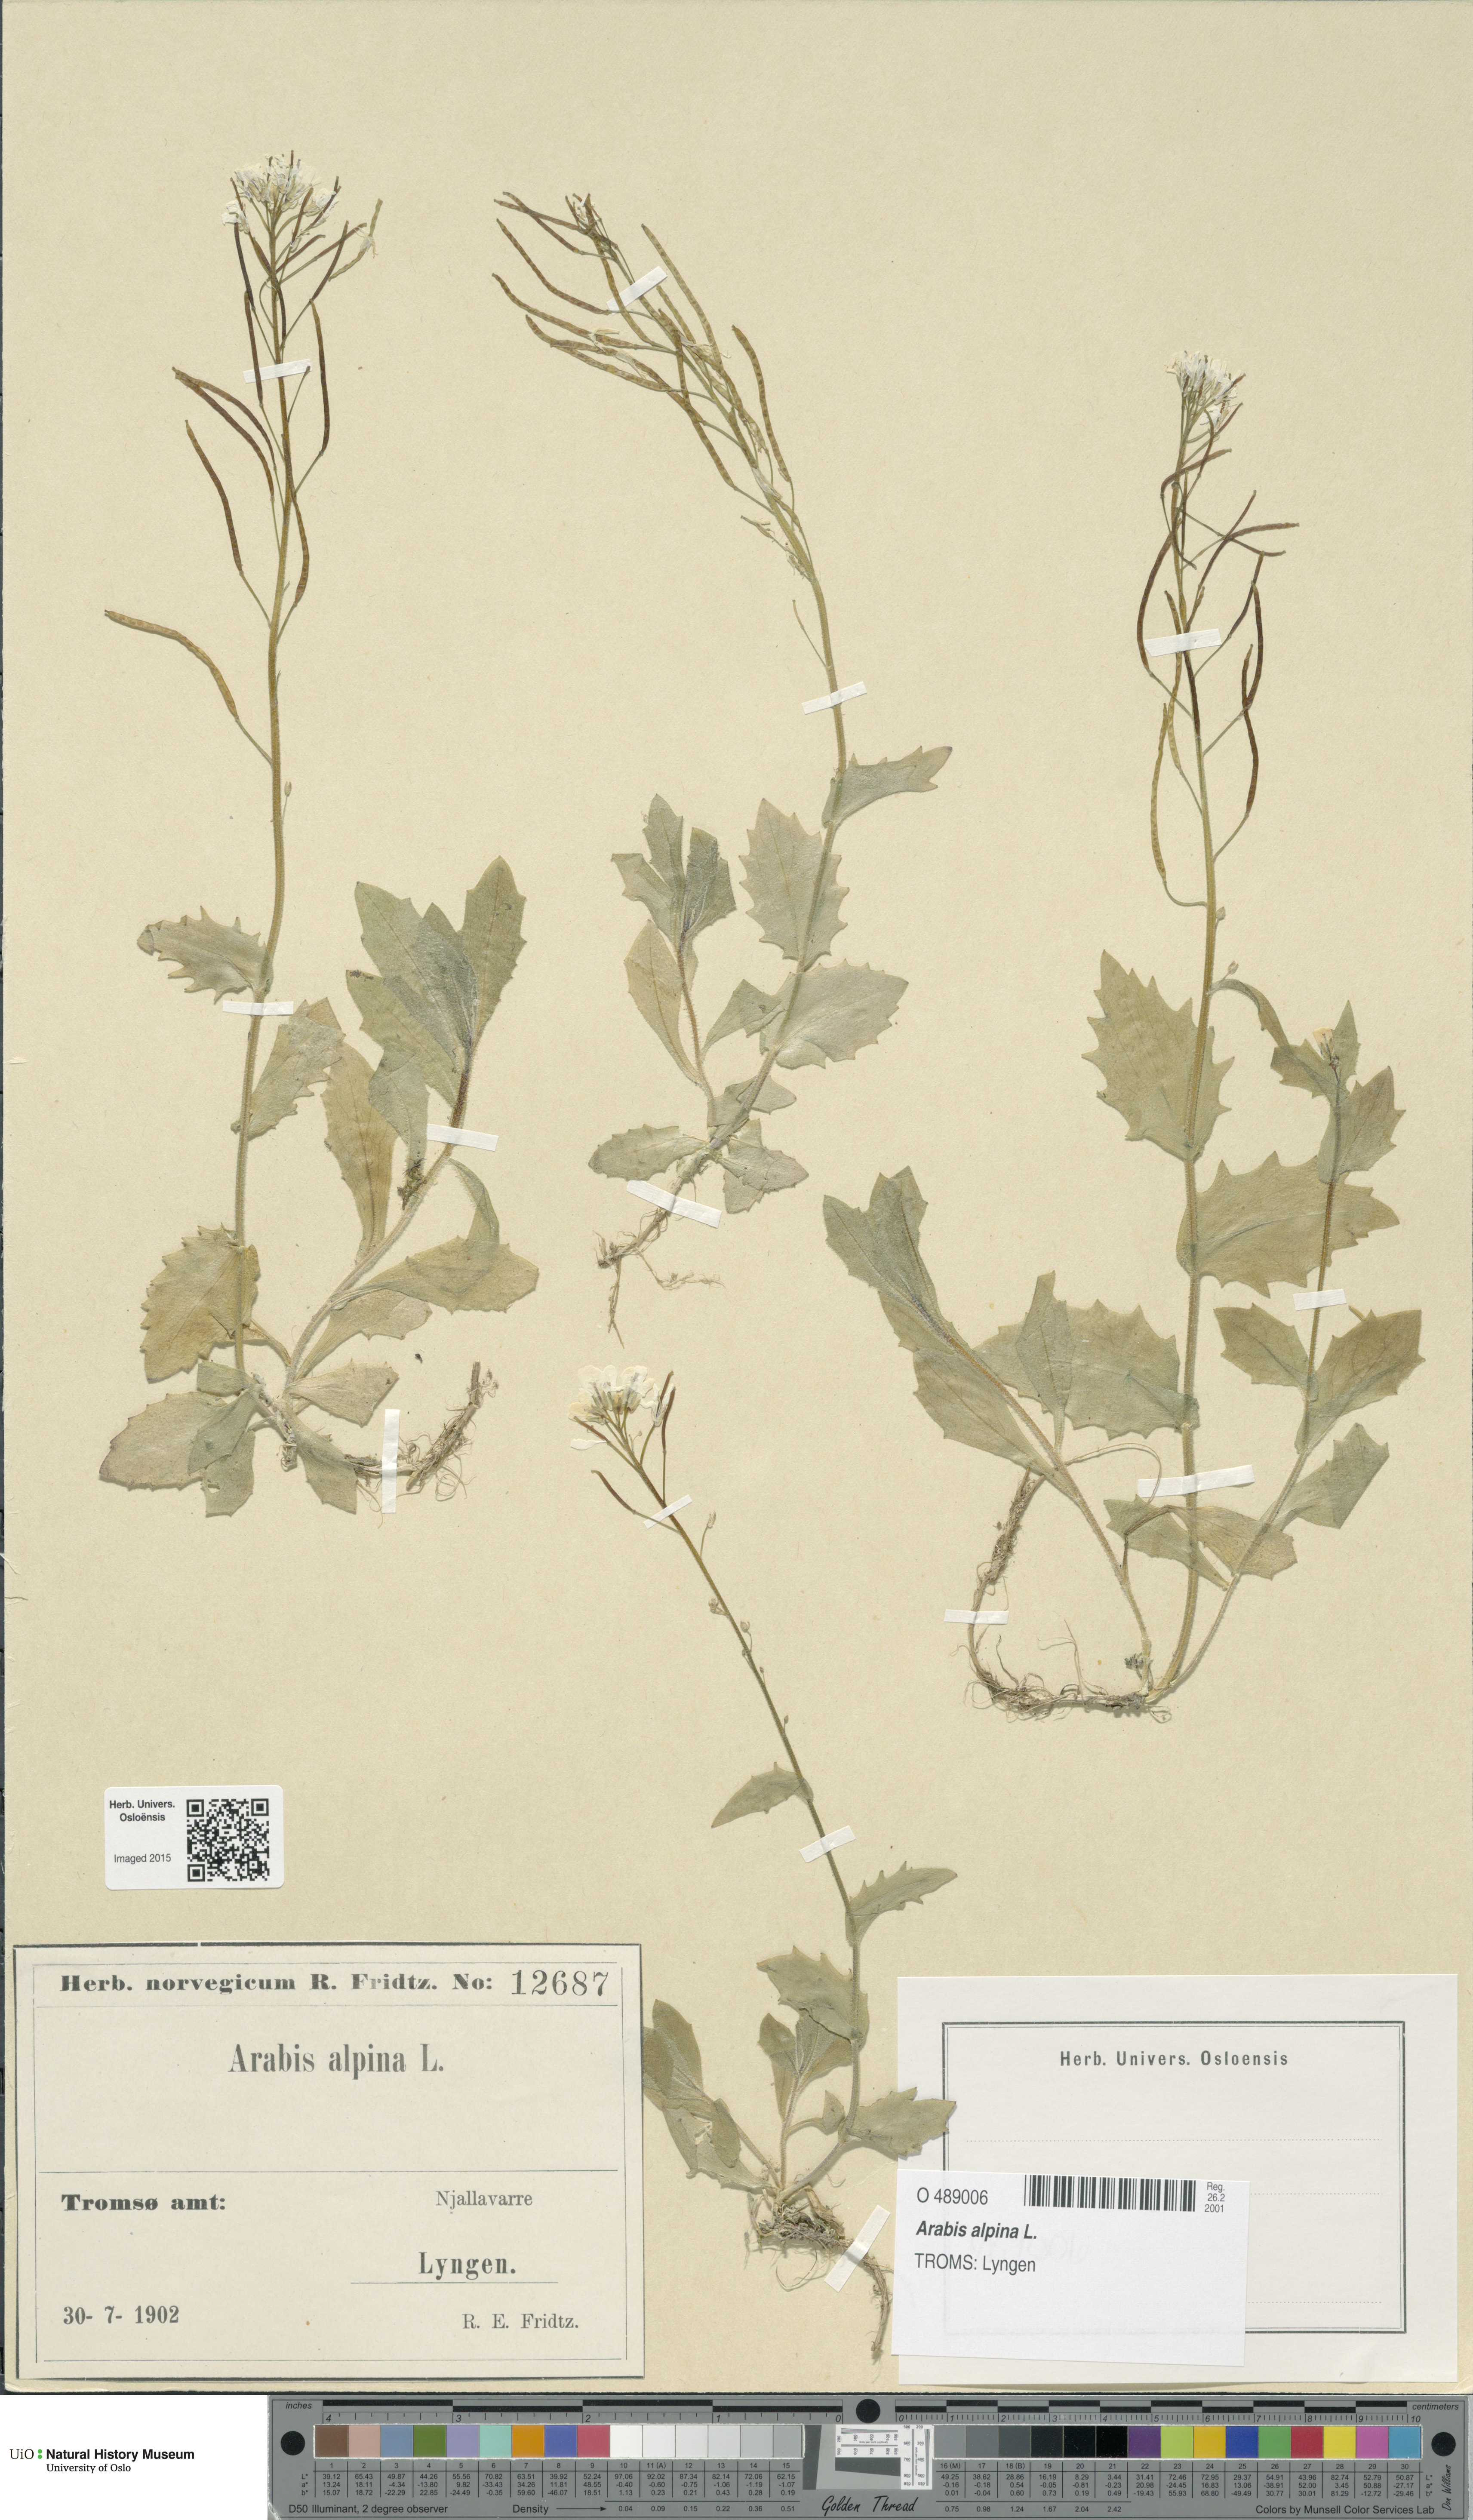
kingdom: Plantae
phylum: Tracheophyta
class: Magnoliopsida
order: Brassicales
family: Brassicaceae
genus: Arabis
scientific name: Arabis alpina
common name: Alpine rock-cress
